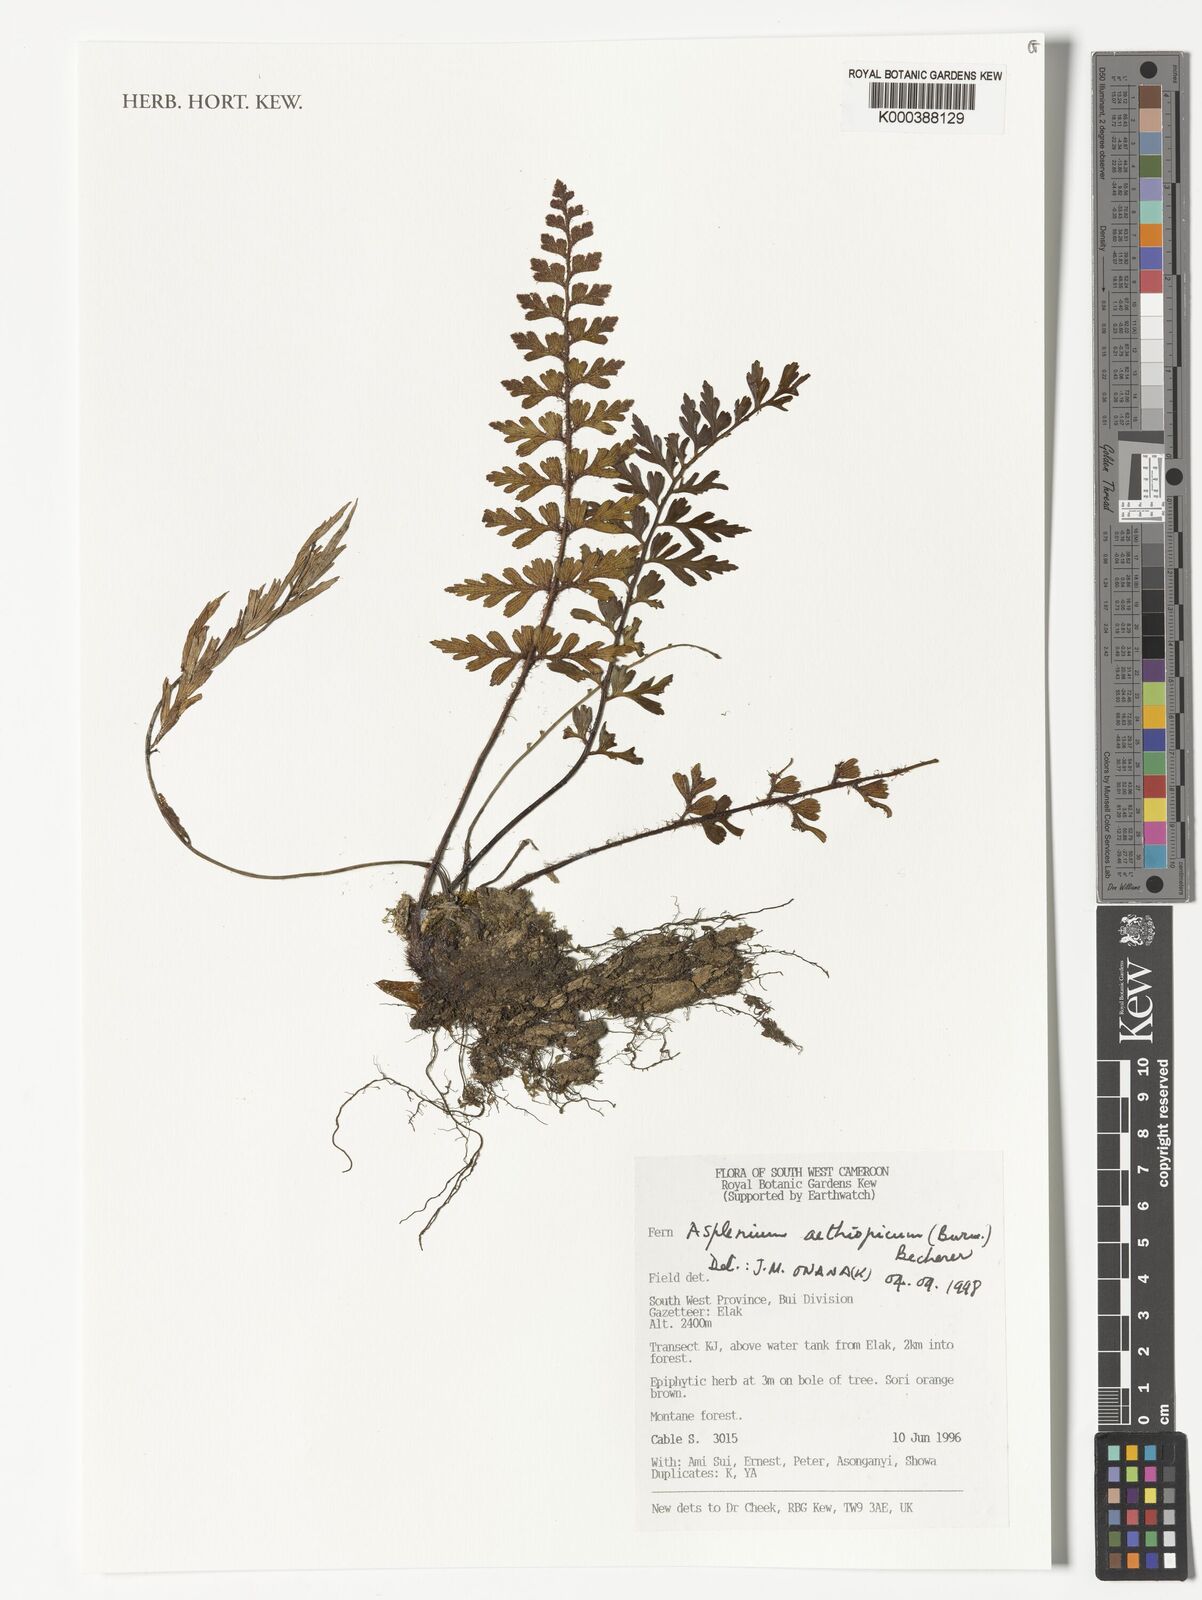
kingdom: Plantae
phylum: Tracheophyta
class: Polypodiopsida
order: Polypodiales
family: Aspleniaceae
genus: Asplenium
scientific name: Asplenium aethiopicum
